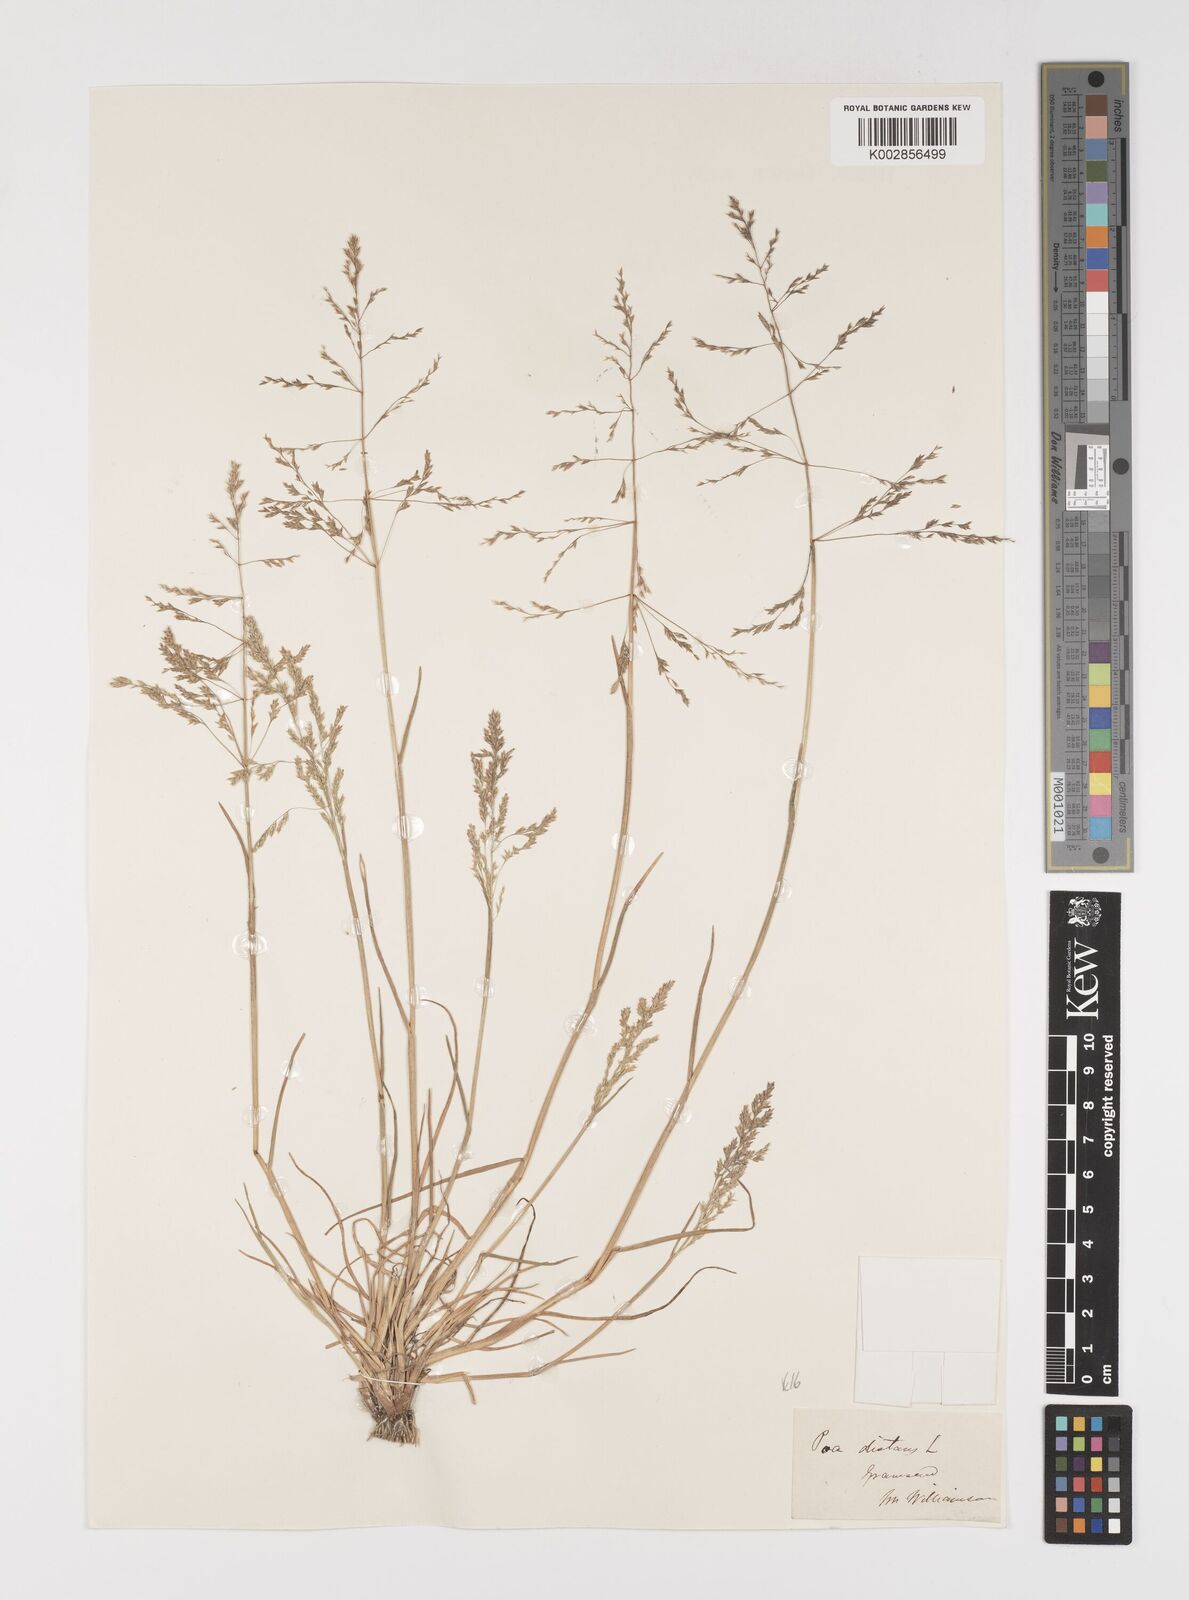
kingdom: Plantae
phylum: Tracheophyta
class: Liliopsida
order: Poales
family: Poaceae
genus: Puccinellia
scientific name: Puccinellia distans
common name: Weeping alkaligrass
